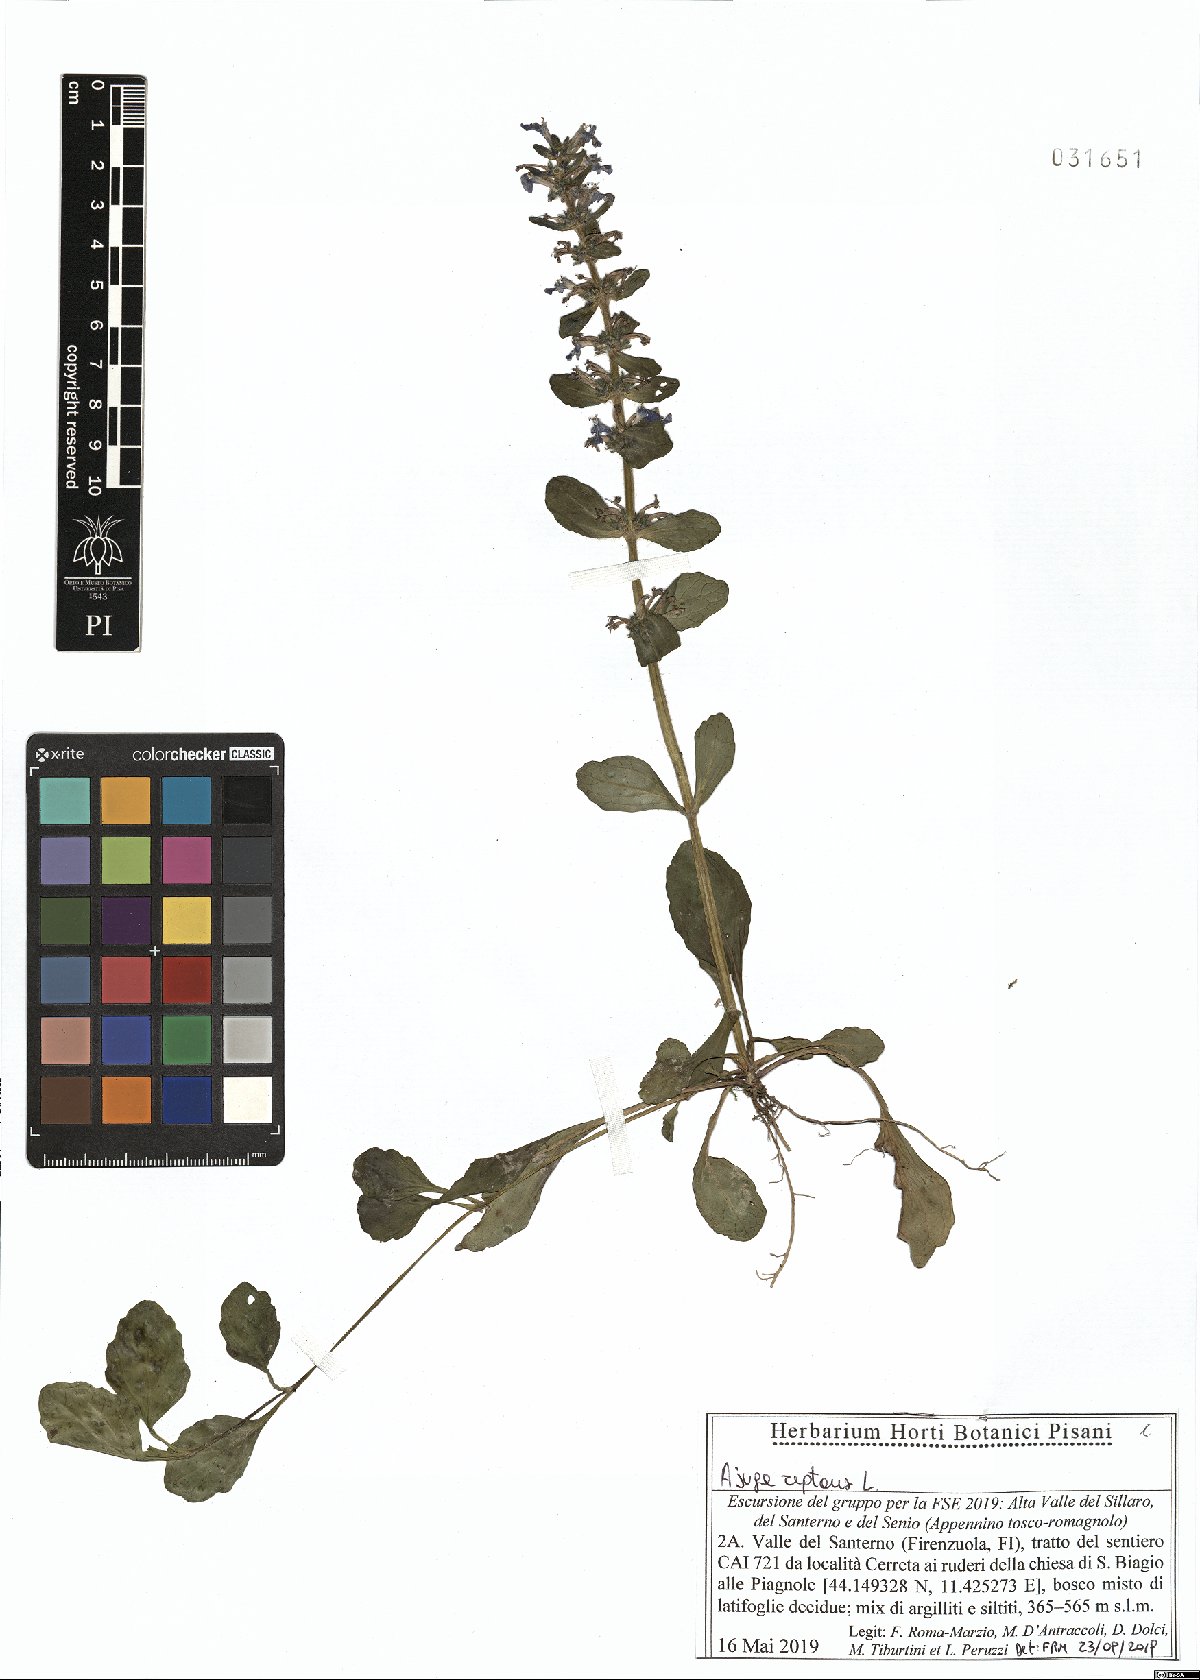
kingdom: Plantae
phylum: Tracheophyta
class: Magnoliopsida
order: Lamiales
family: Lamiaceae
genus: Ajuga
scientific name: Ajuga reptans
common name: Bugle
